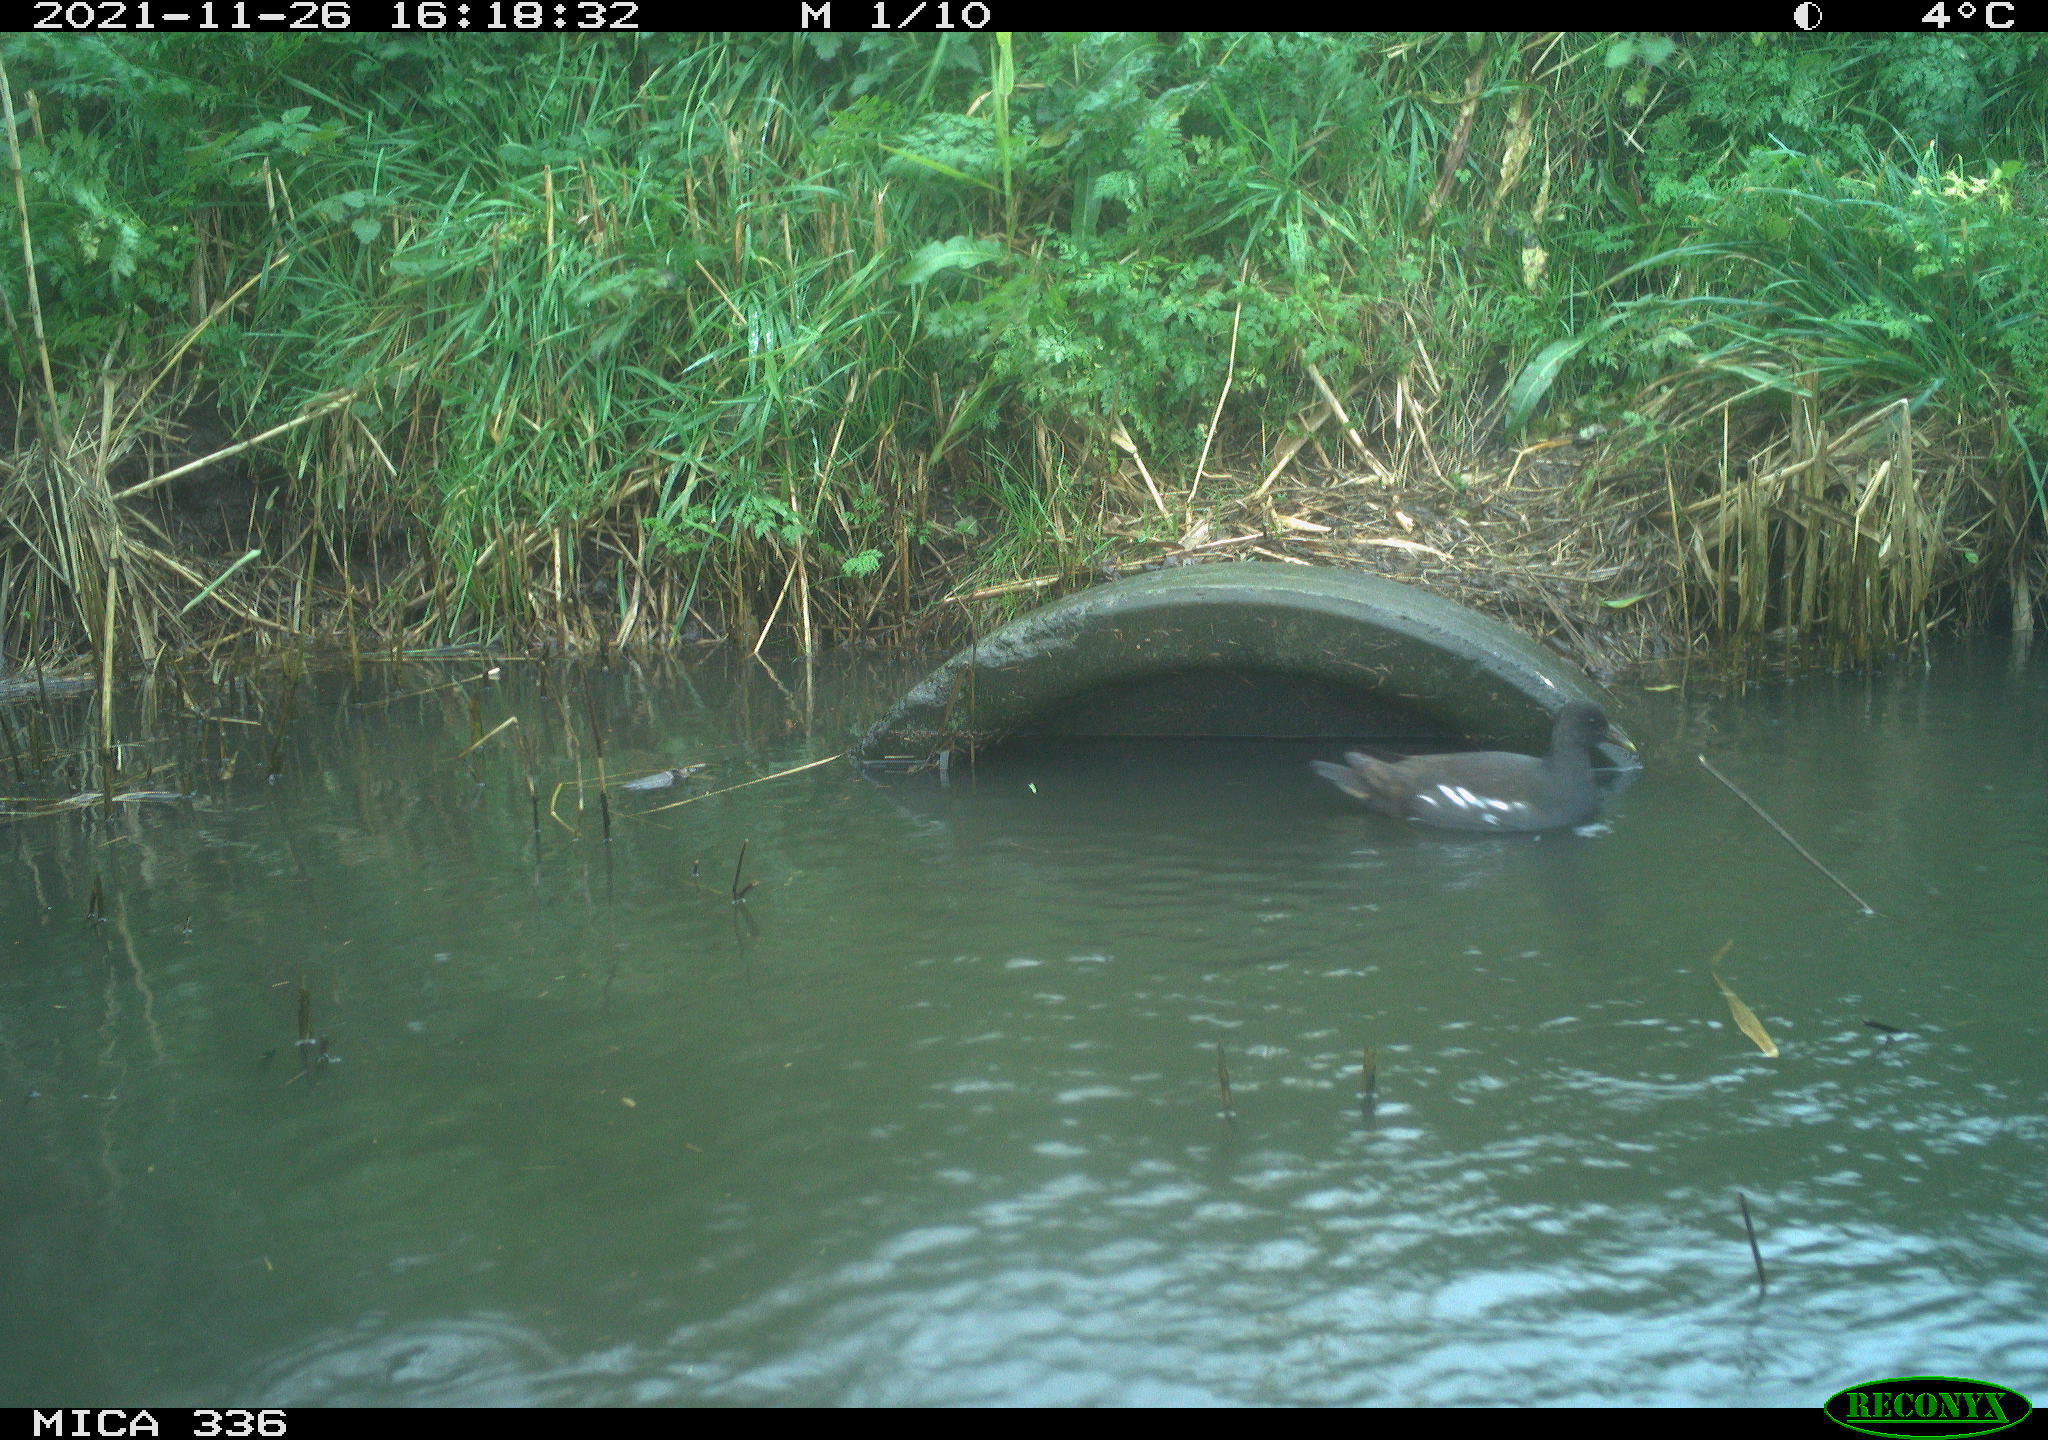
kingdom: Animalia
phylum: Chordata
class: Aves
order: Gruiformes
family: Rallidae
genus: Gallinula
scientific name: Gallinula chloropus
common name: Common moorhen
